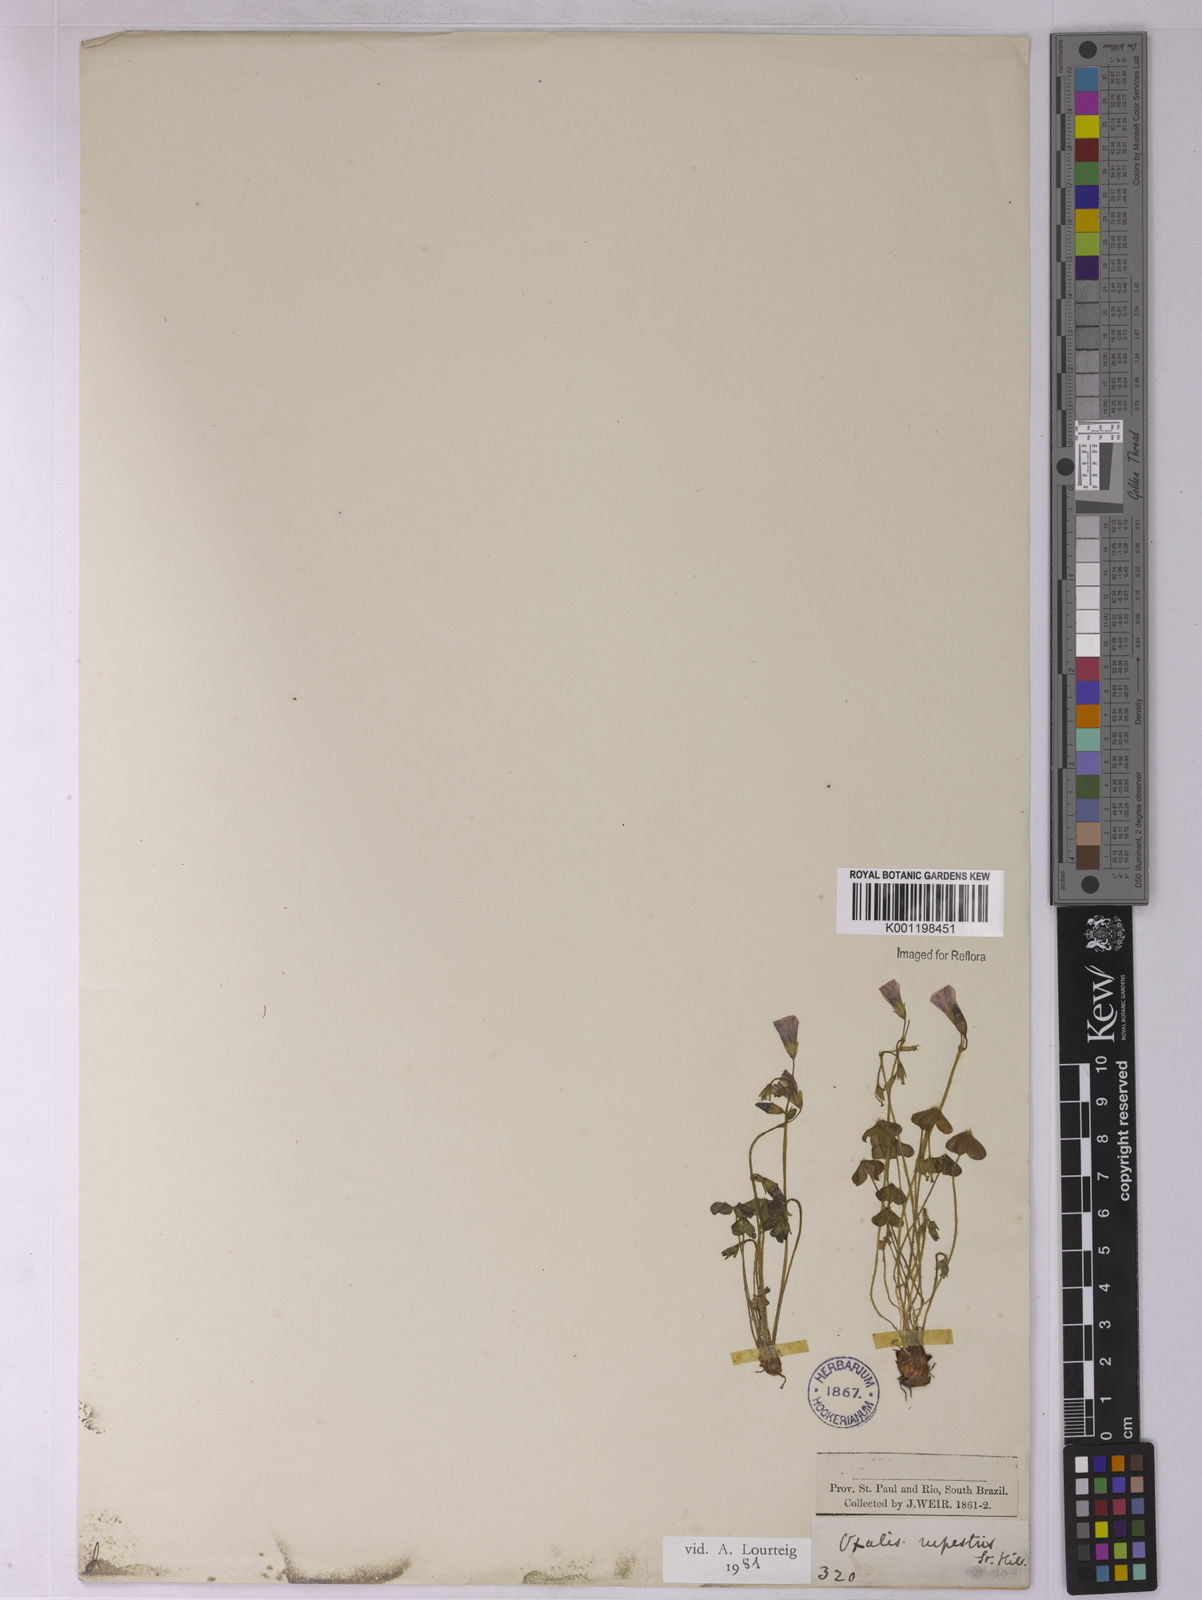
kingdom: Plantae
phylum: Tracheophyta
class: Magnoliopsida
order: Oxalidales
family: Oxalidaceae
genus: Oxalis
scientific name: Oxalis rupestris
